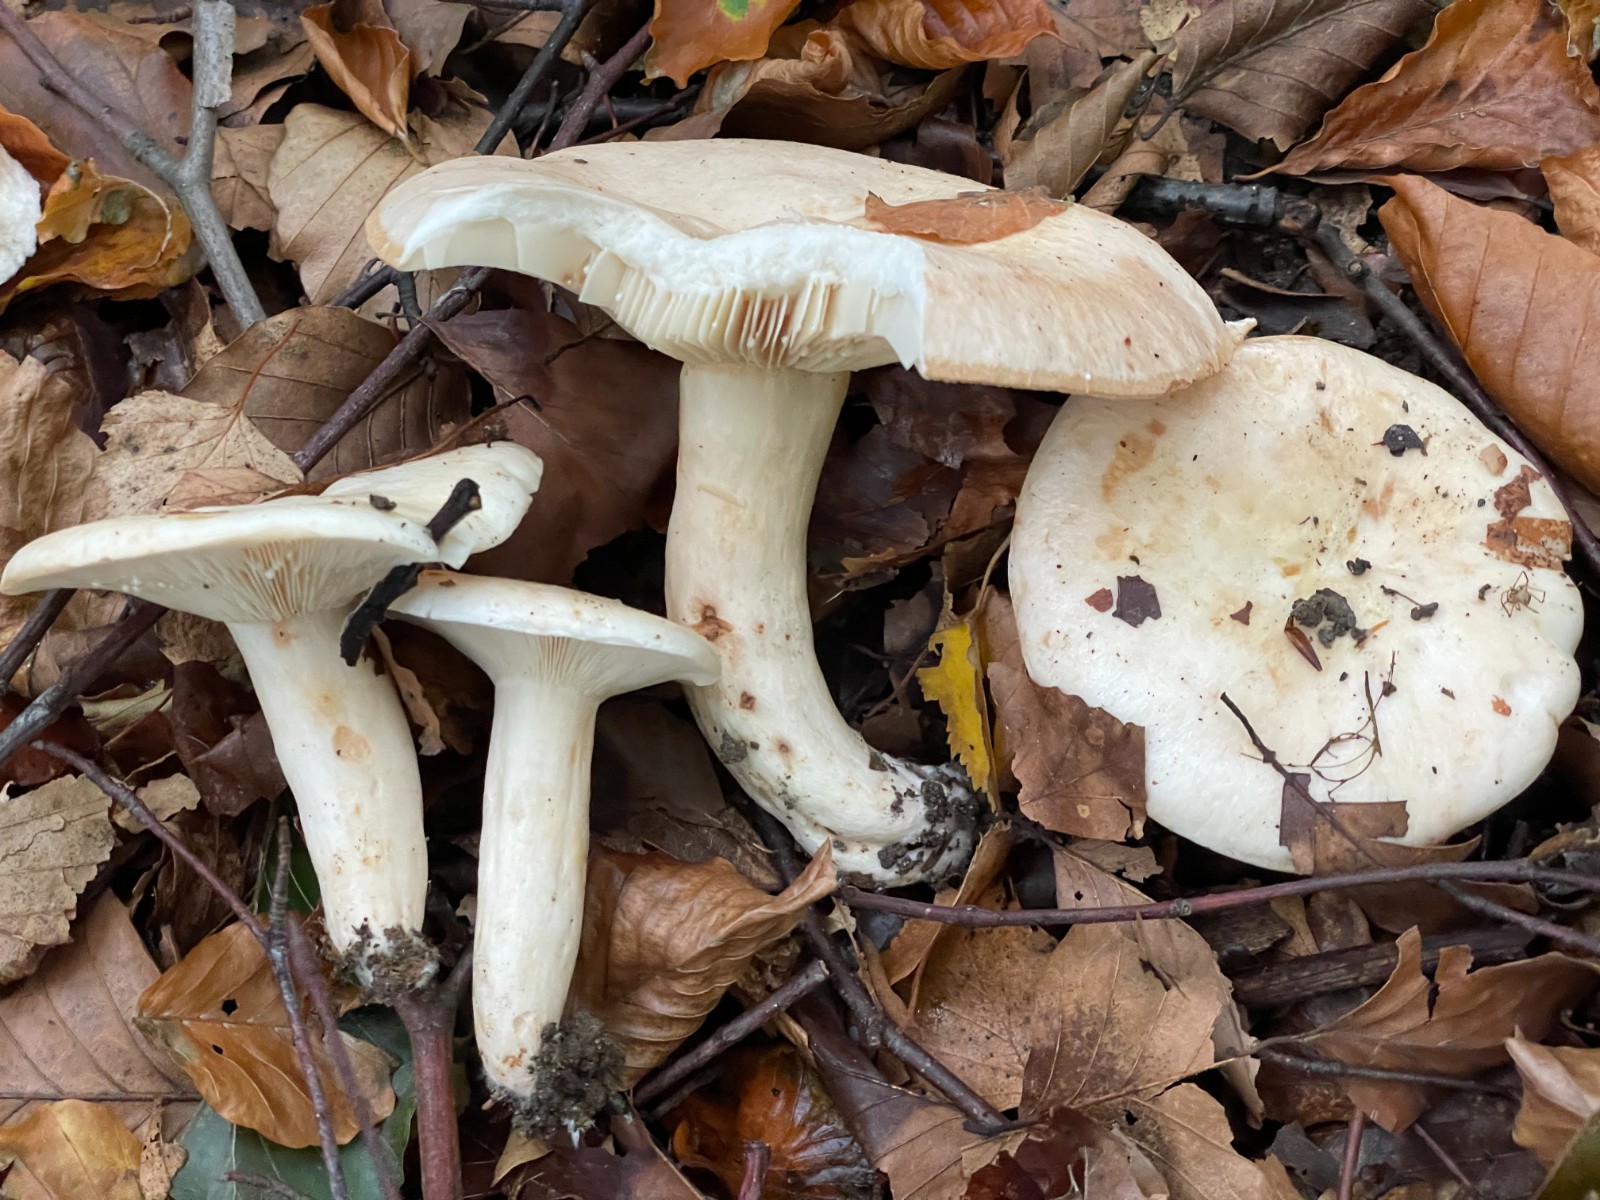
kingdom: Fungi
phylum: Basidiomycota
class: Agaricomycetes
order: Russulales
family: Russulaceae
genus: Lactarius
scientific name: Lactarius pallidus
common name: bleg mælkehat
